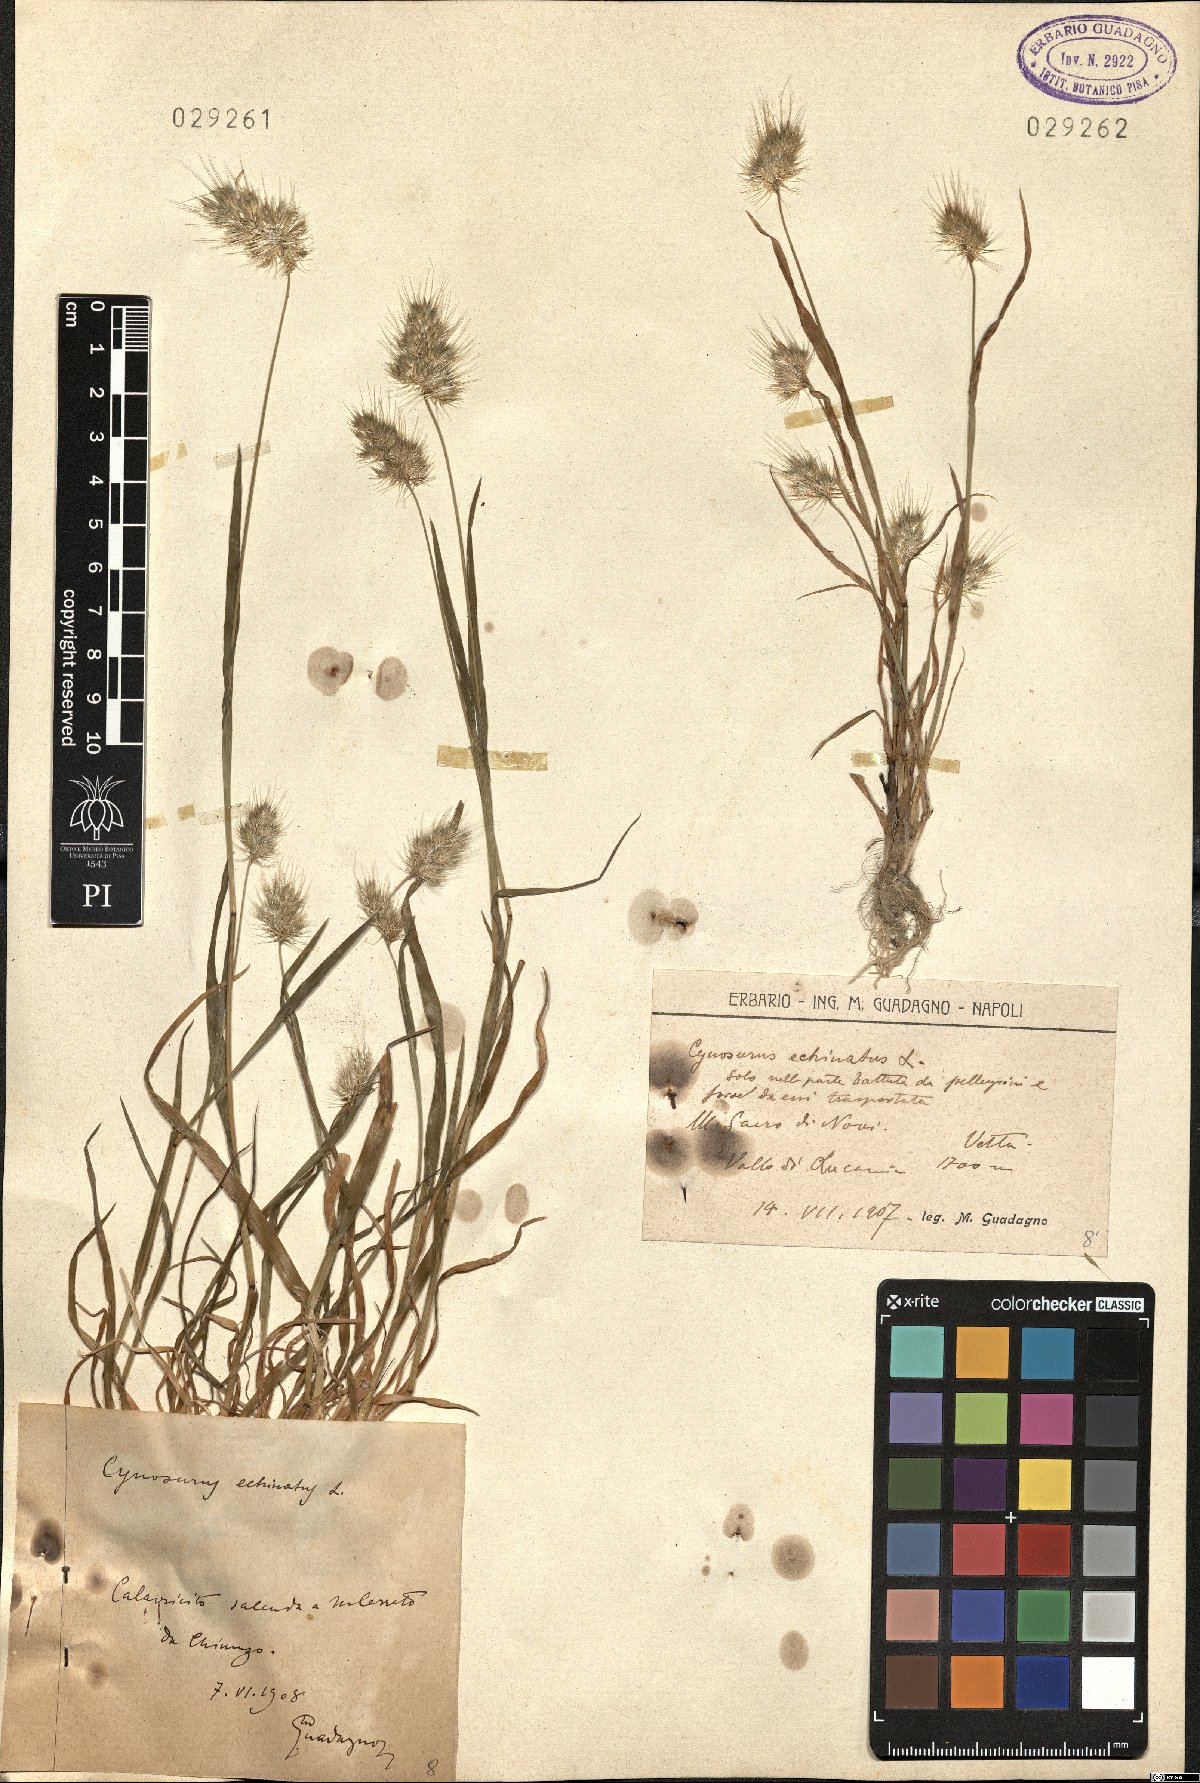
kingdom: Plantae
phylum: Tracheophyta
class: Liliopsida
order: Poales
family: Poaceae
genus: Cynosurus
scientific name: Cynosurus echinatus
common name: Rough dog's-tail
